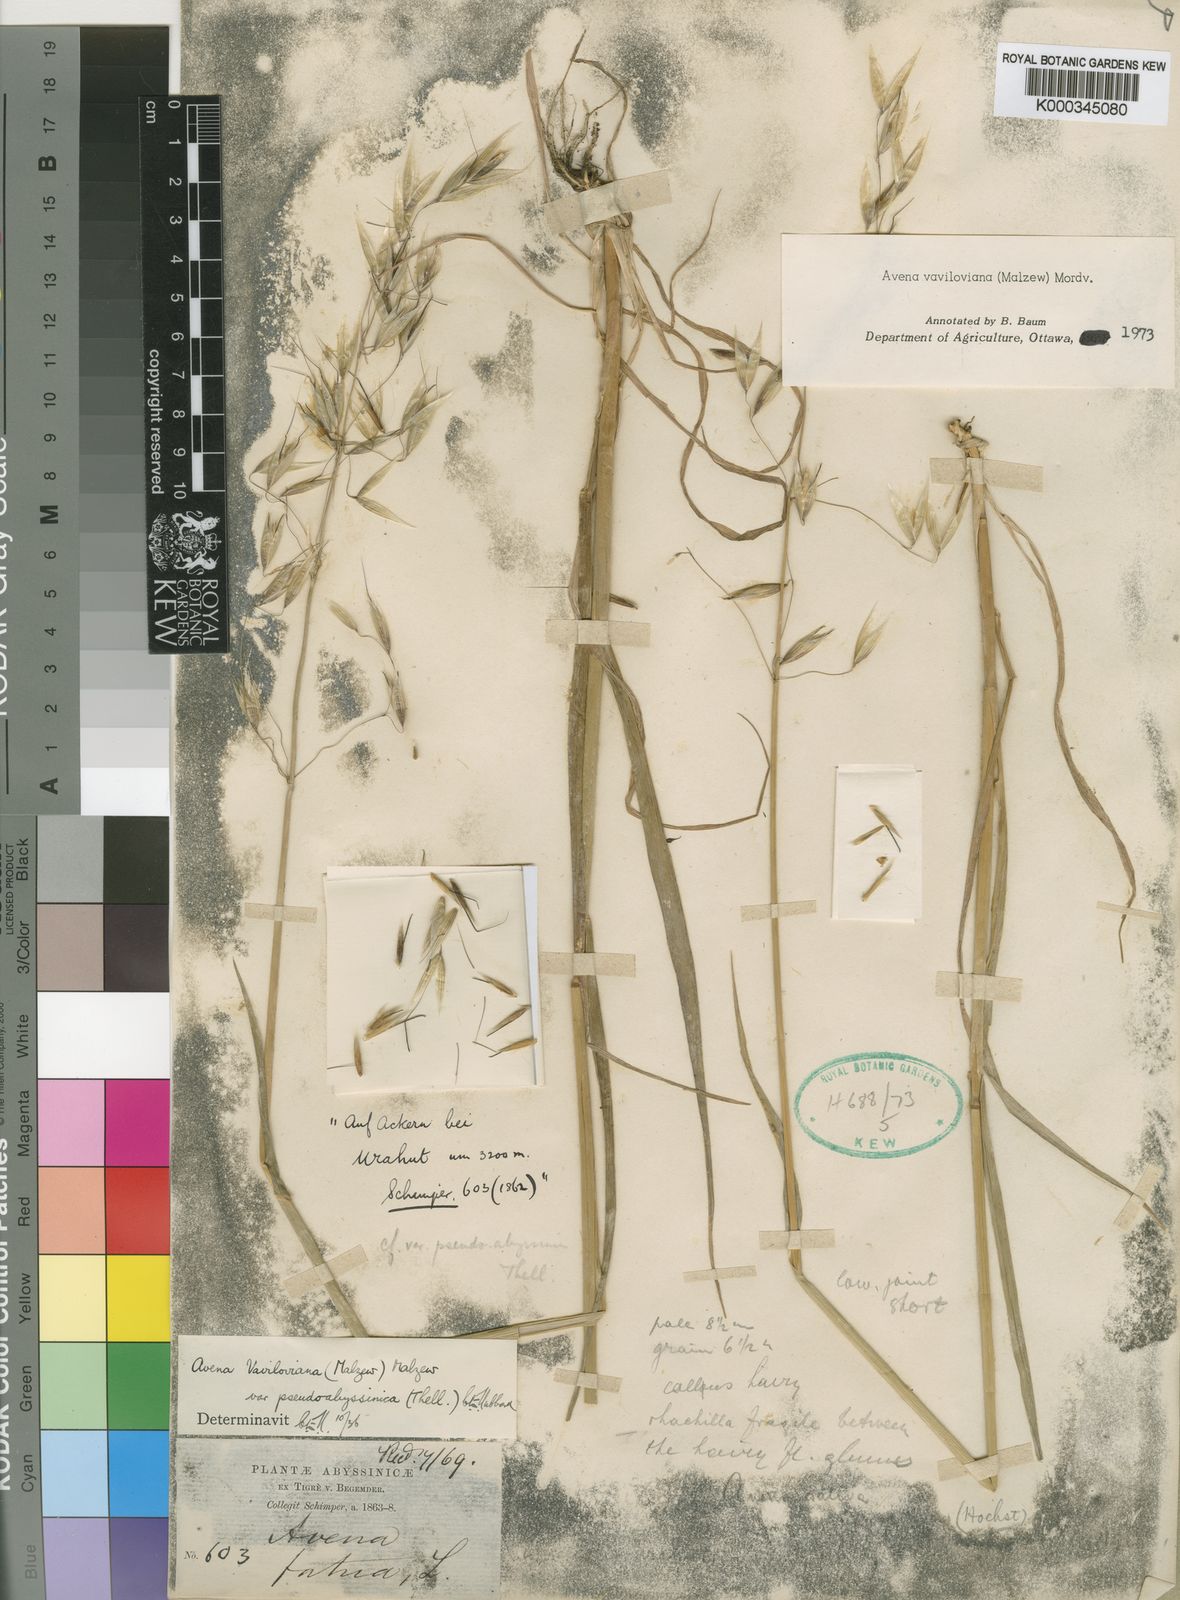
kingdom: Plantae
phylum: Tracheophyta
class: Liliopsida
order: Poales
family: Poaceae
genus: Avena
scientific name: Avena vaviloviana
